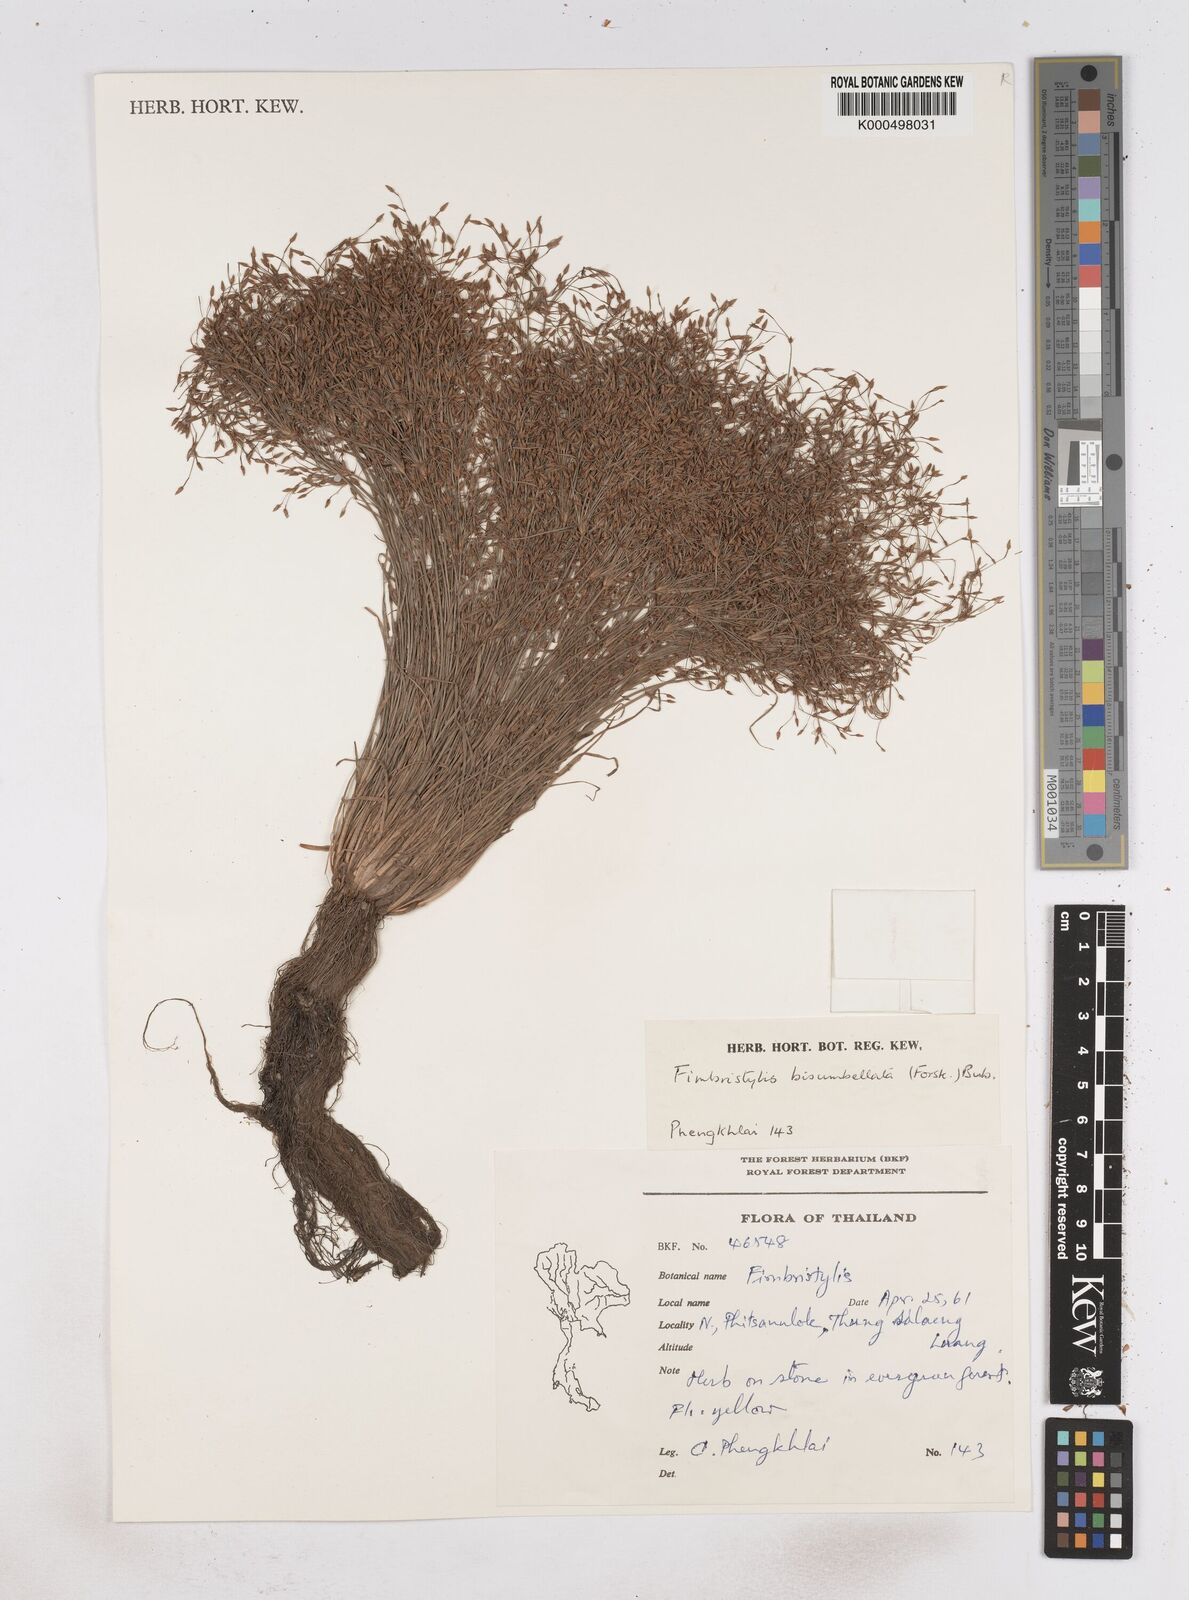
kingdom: Plantae
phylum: Tracheophyta
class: Liliopsida
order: Poales
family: Cyperaceae
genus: Fimbristylis
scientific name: Fimbristylis bisumbellata
